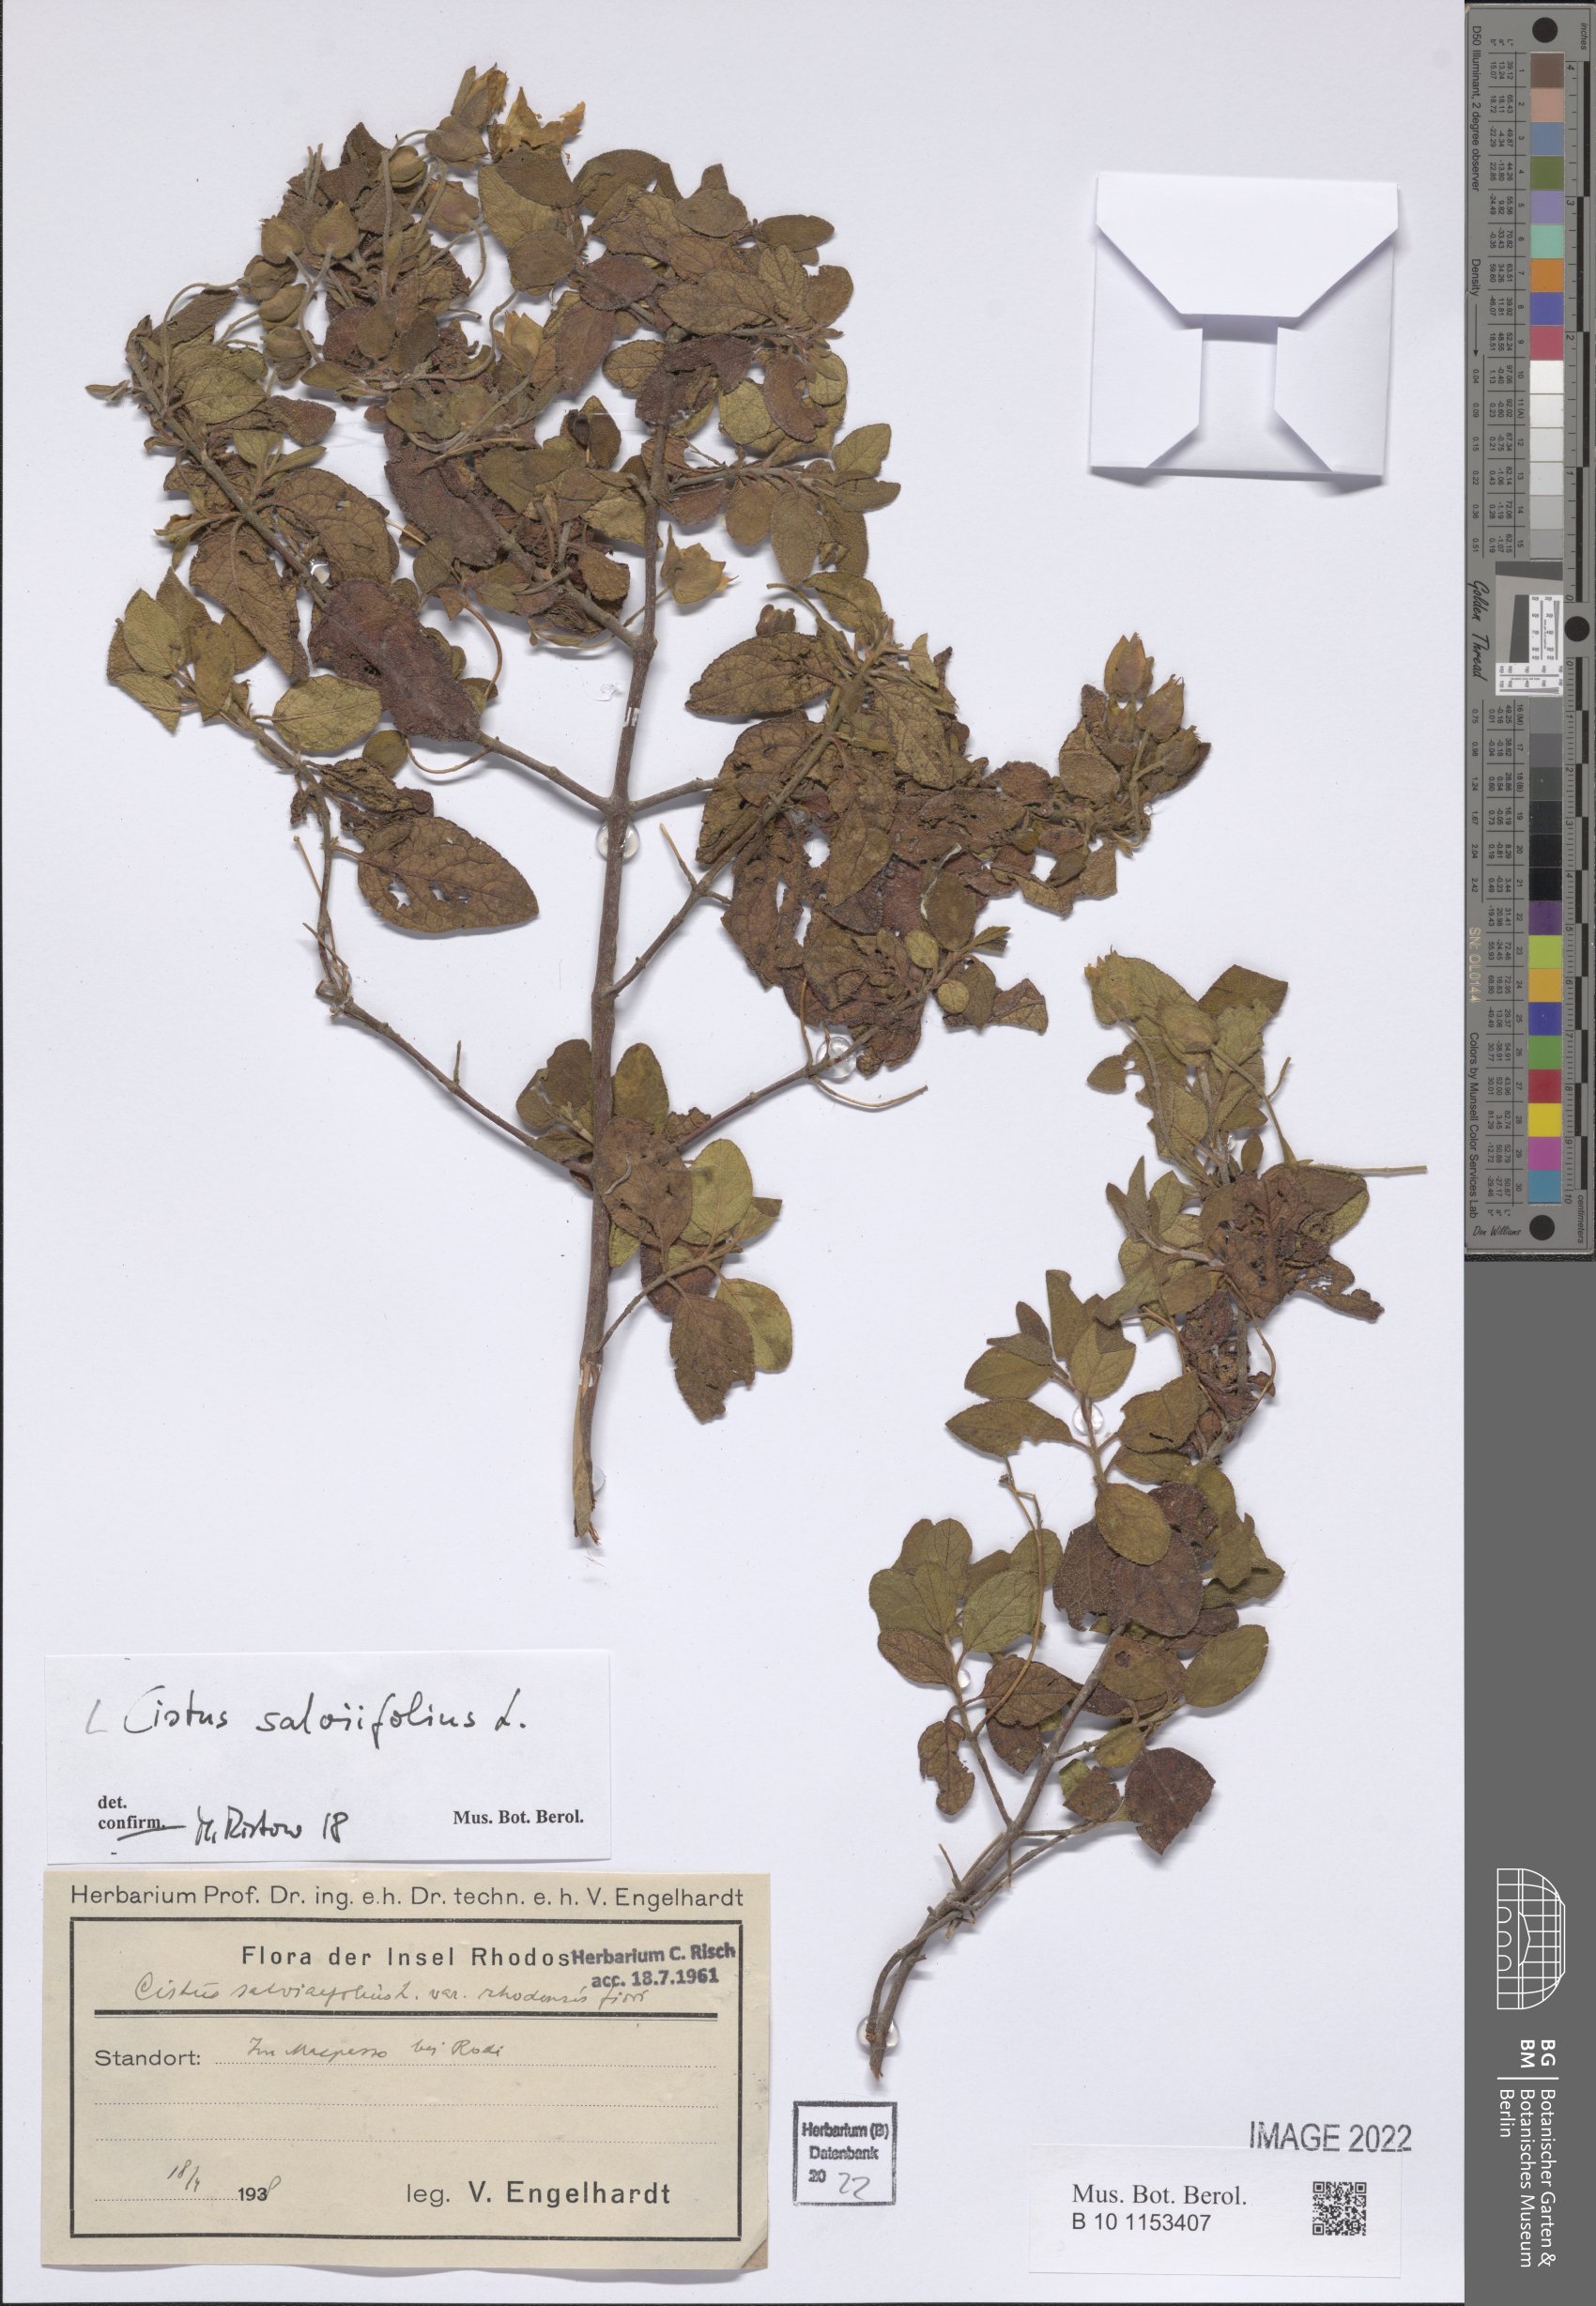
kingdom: Plantae
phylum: Tracheophyta
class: Magnoliopsida
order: Malvales
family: Cistaceae
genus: Cistus
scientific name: Cistus salviifolius
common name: Salvia cistus
